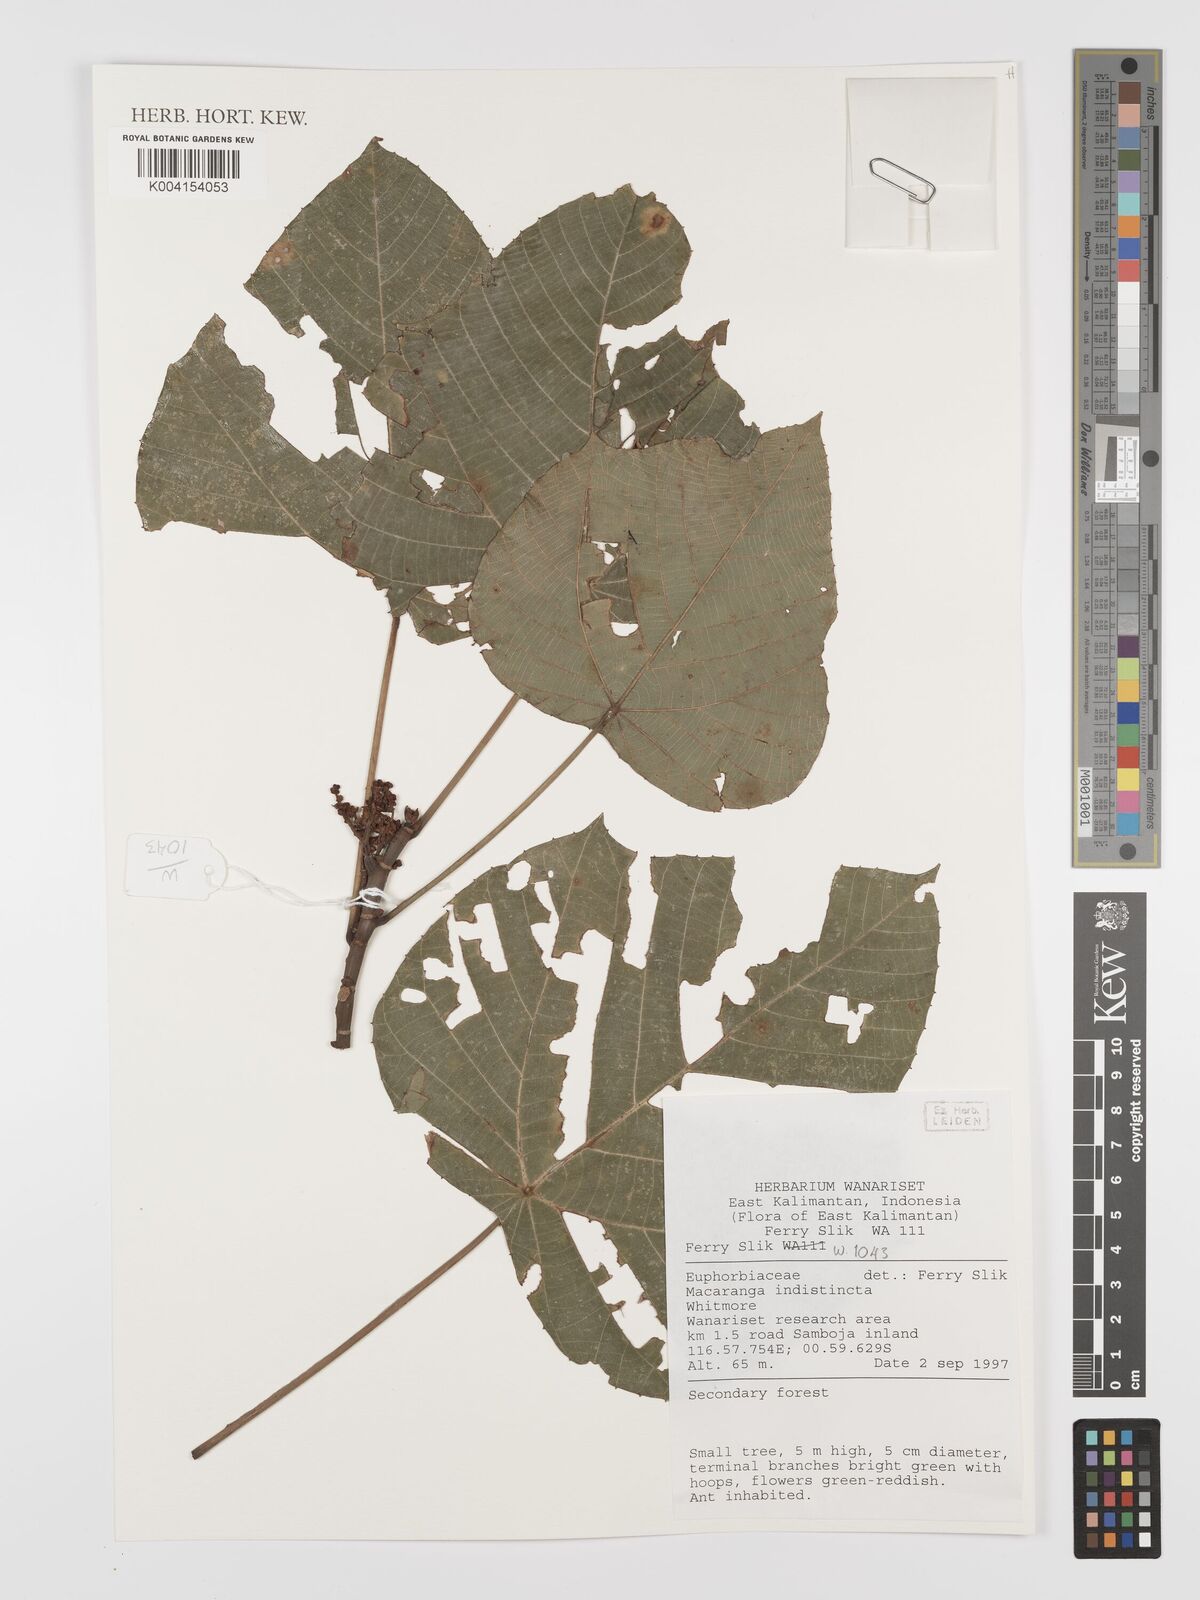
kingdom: Plantae
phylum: Tracheophyta
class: Magnoliopsida
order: Malpighiales
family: Euphorbiaceae
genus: Macaranga
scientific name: Macaranga indistincta
